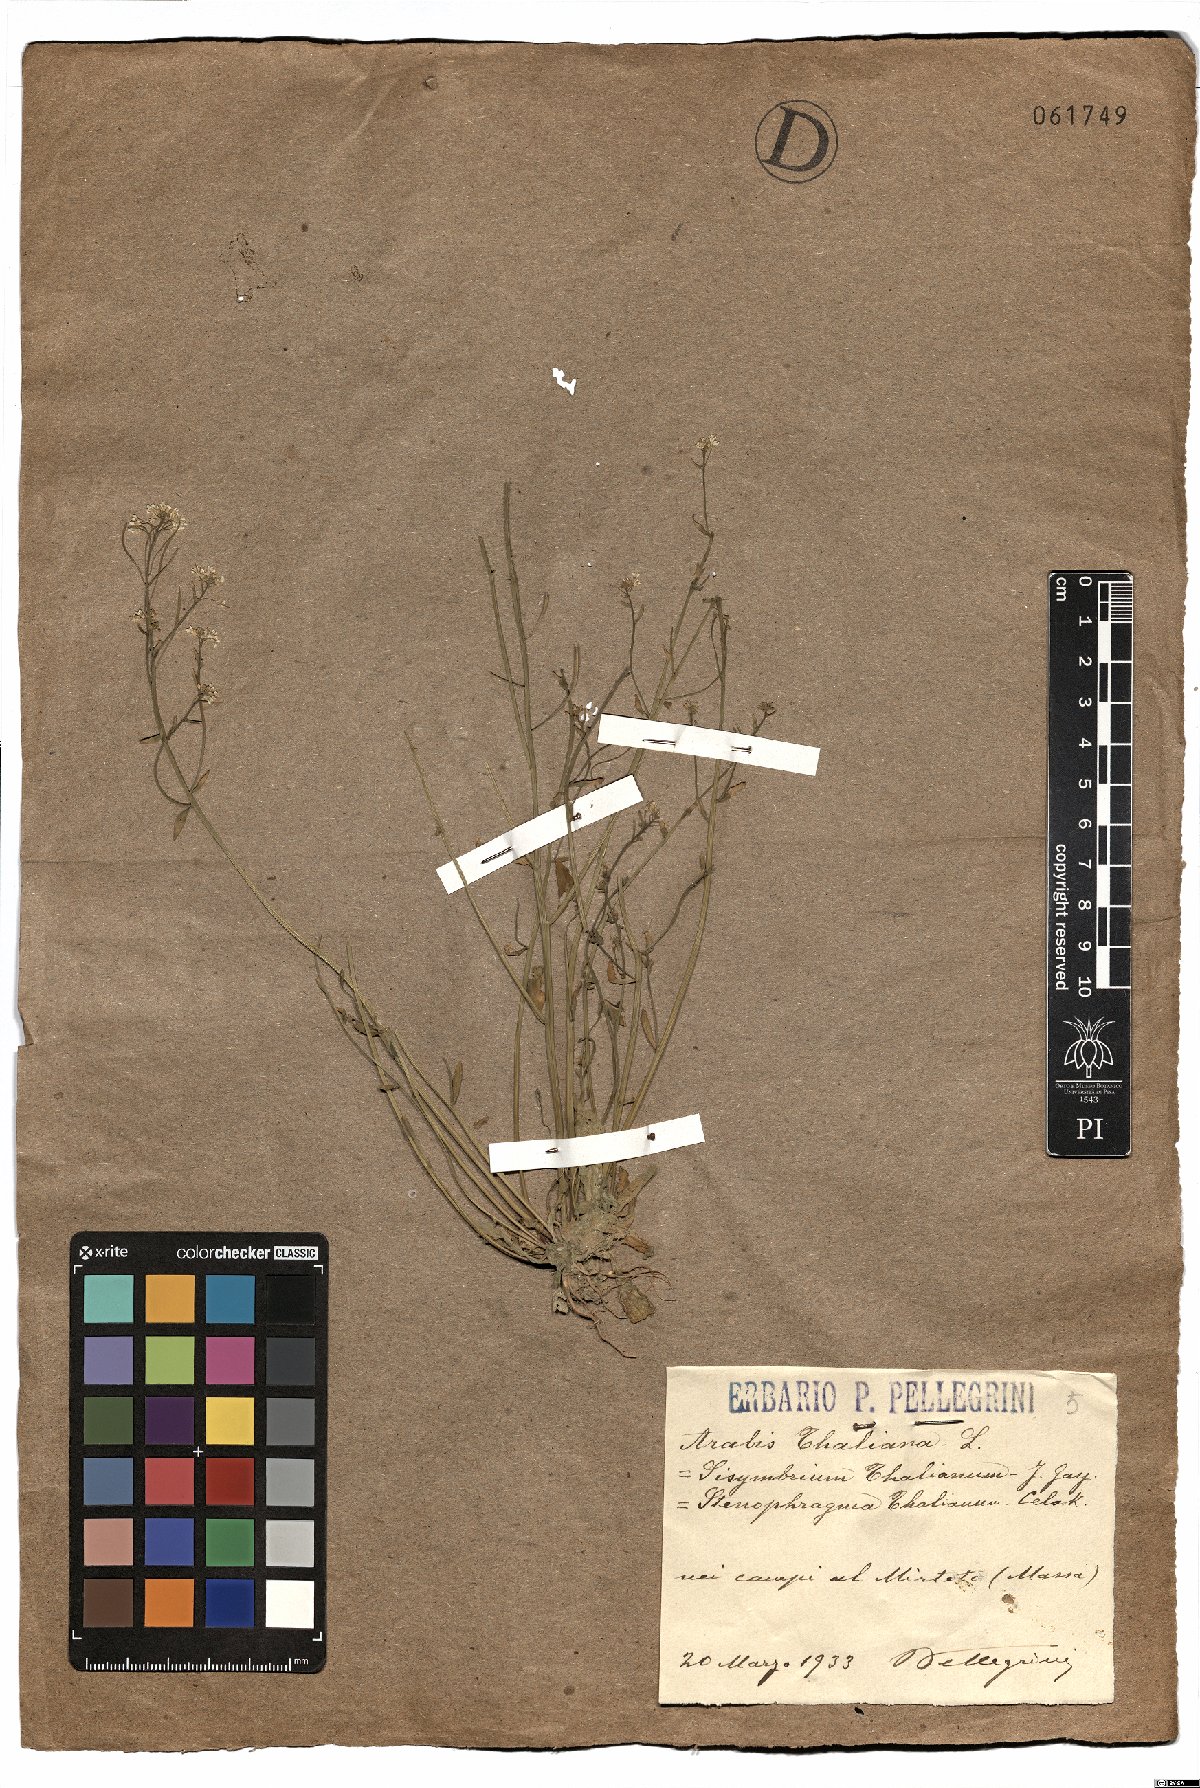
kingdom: Plantae
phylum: Tracheophyta
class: Magnoliopsida
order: Brassicales
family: Brassicaceae
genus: Arabidopsis
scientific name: Arabidopsis thaliana
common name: Thale cress
